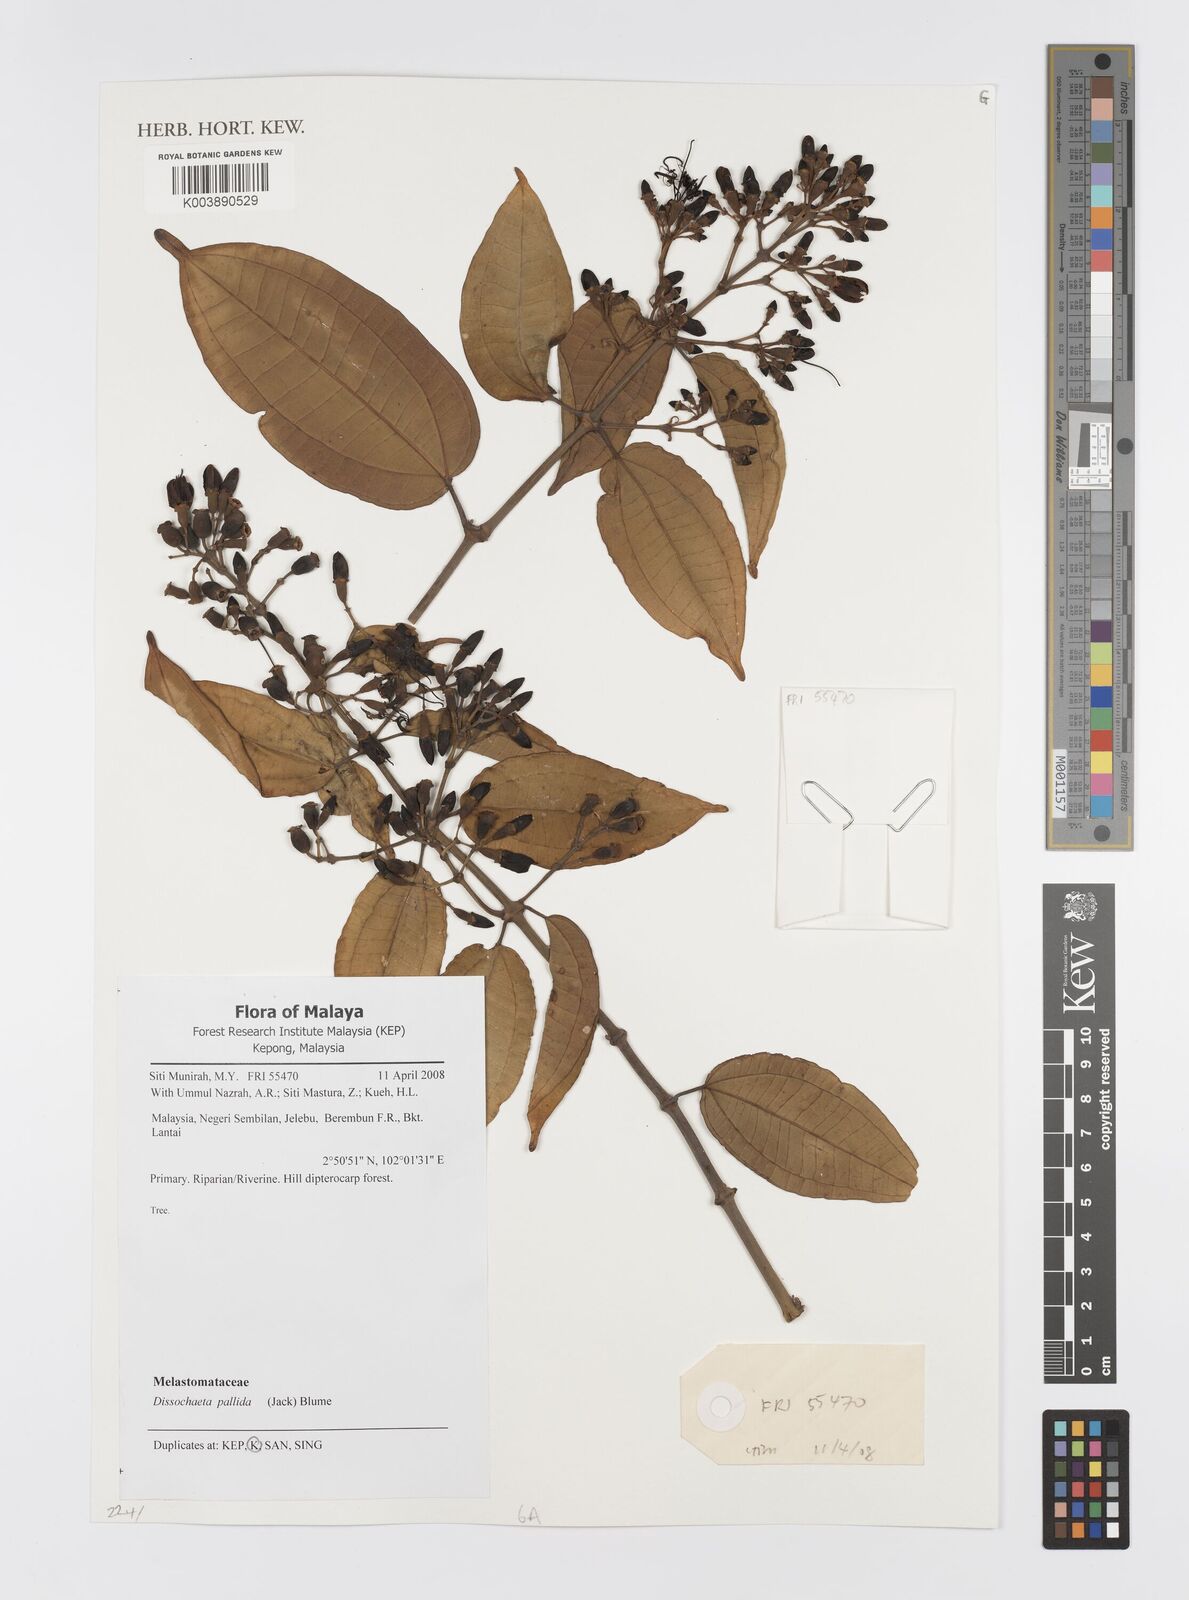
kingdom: Plantae
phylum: Tracheophyta
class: Magnoliopsida
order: Myrtales
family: Melastomataceae
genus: Dissochaeta
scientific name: Dissochaeta pallida
